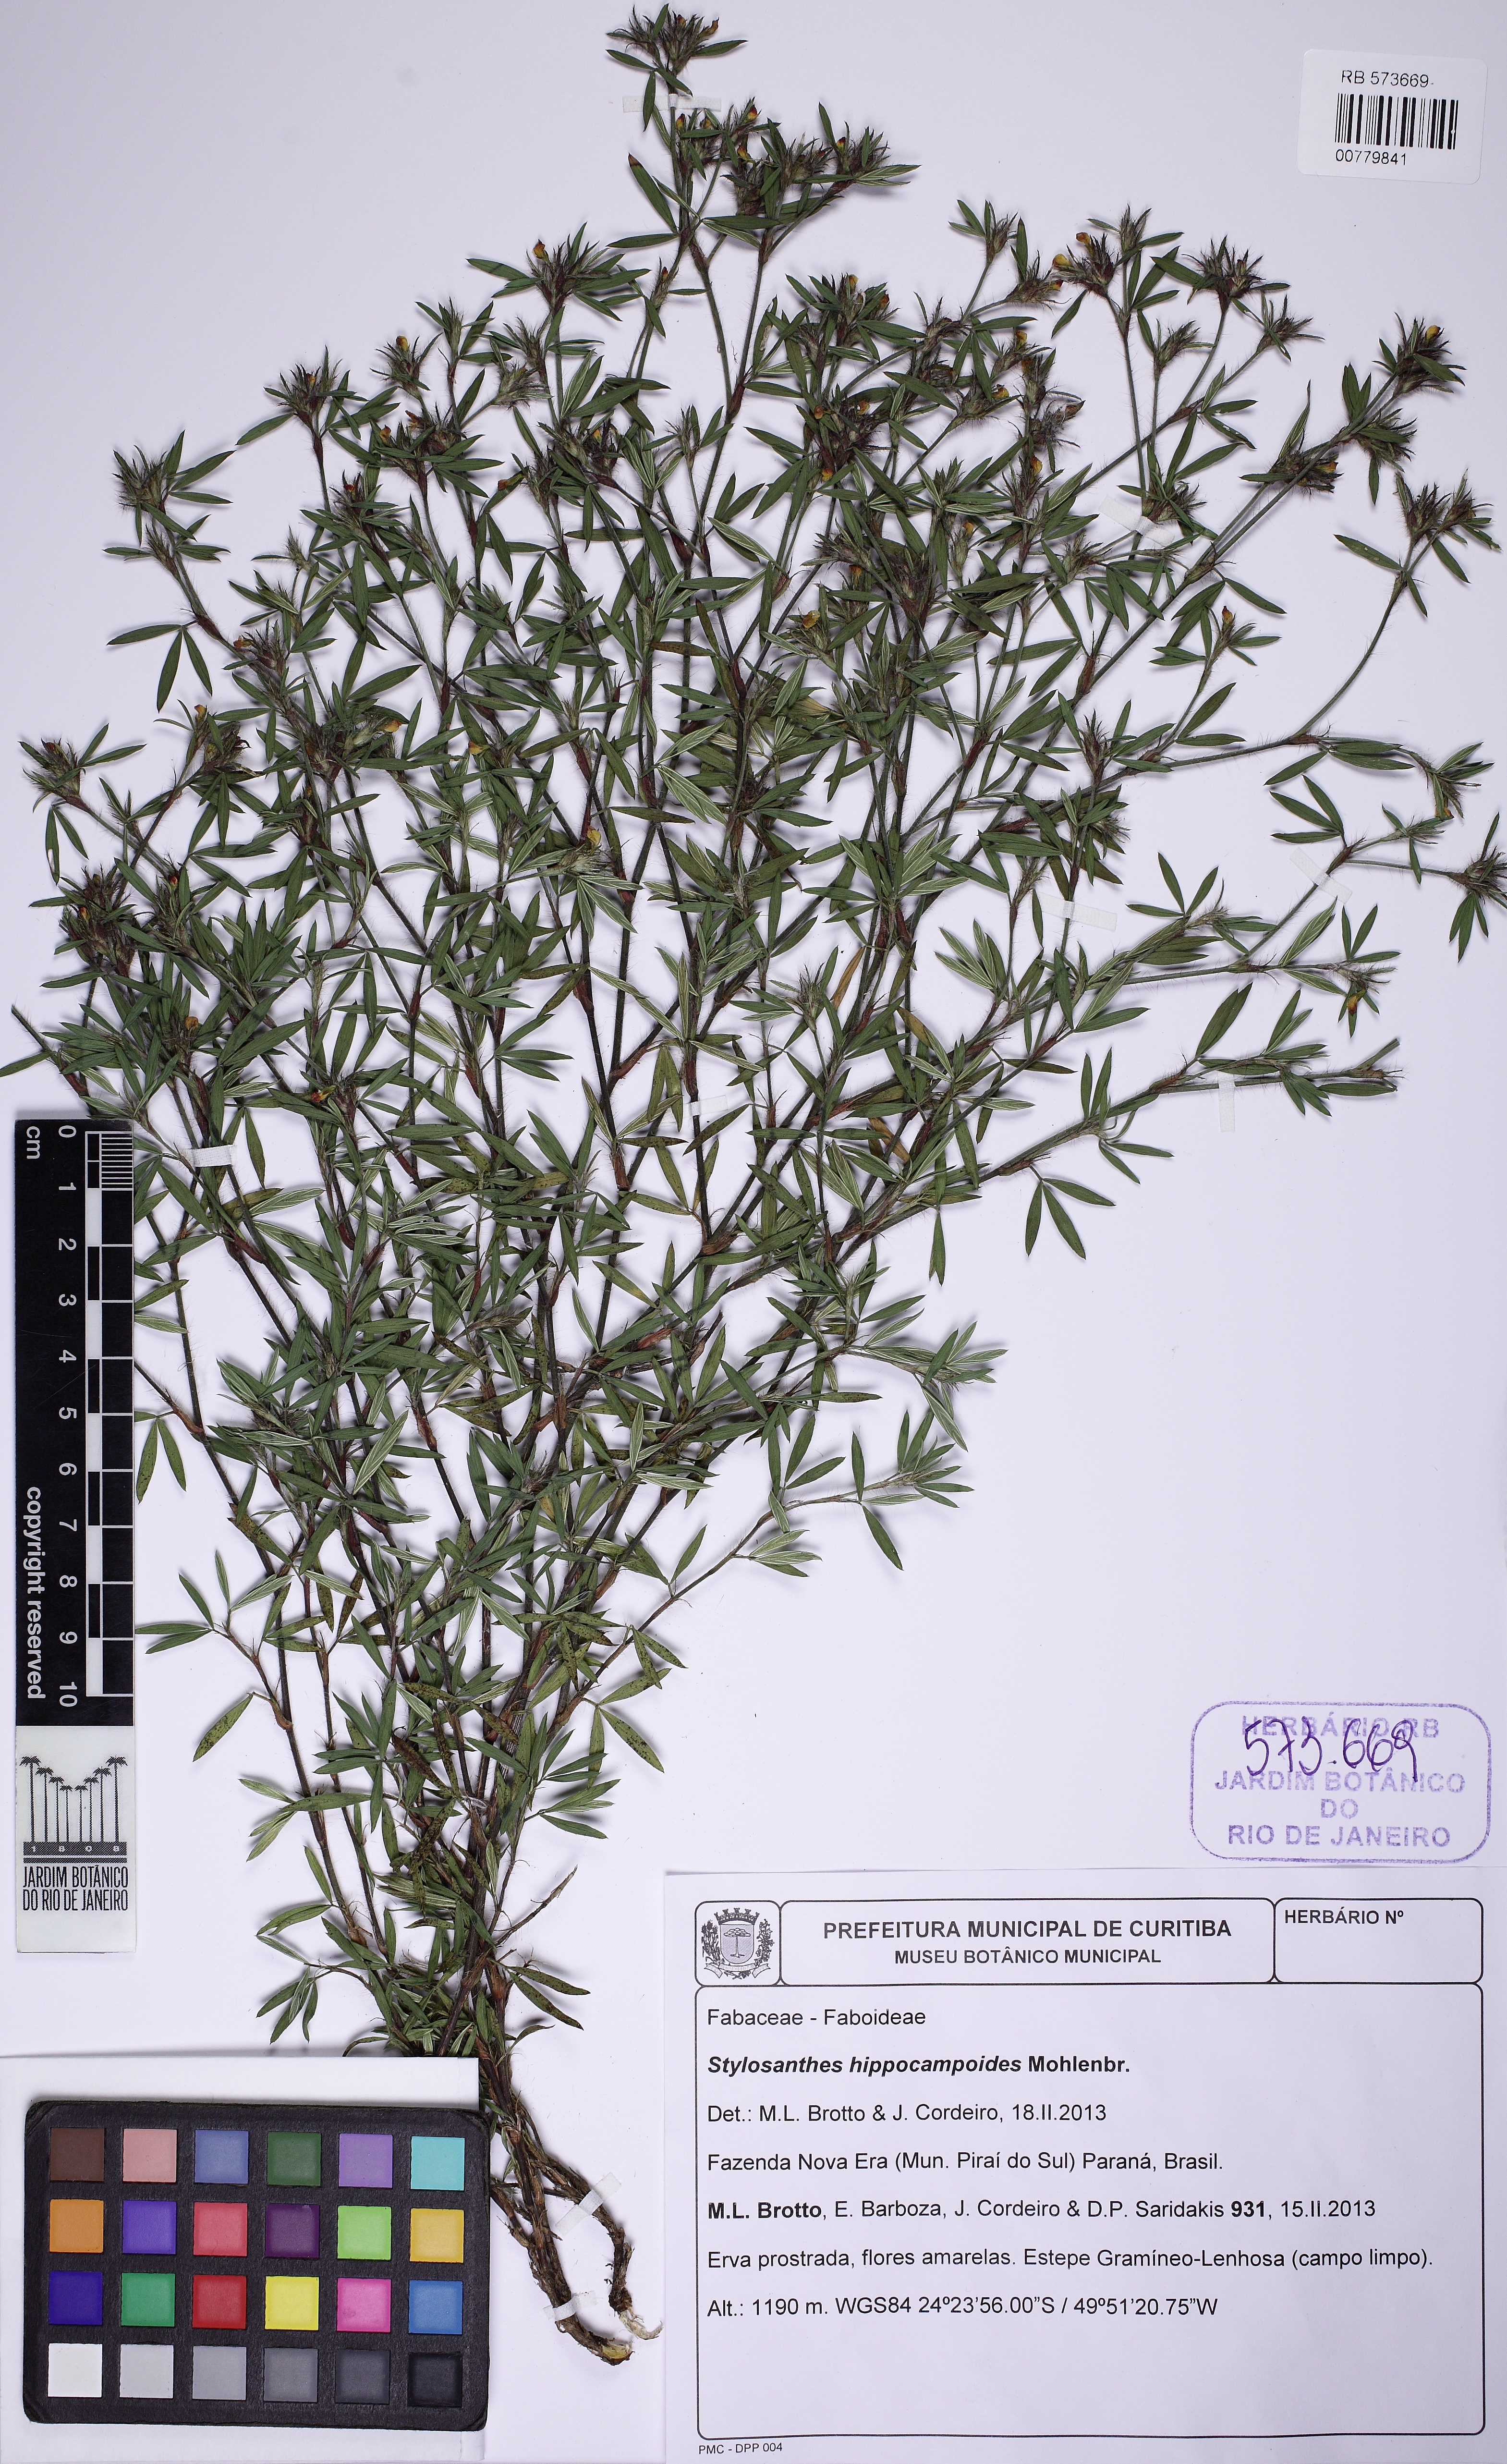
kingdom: Plantae
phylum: Tracheophyta
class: Magnoliopsida
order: Fabales
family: Fabaceae
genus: Stylosanthes
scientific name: Stylosanthes hippocampoides
